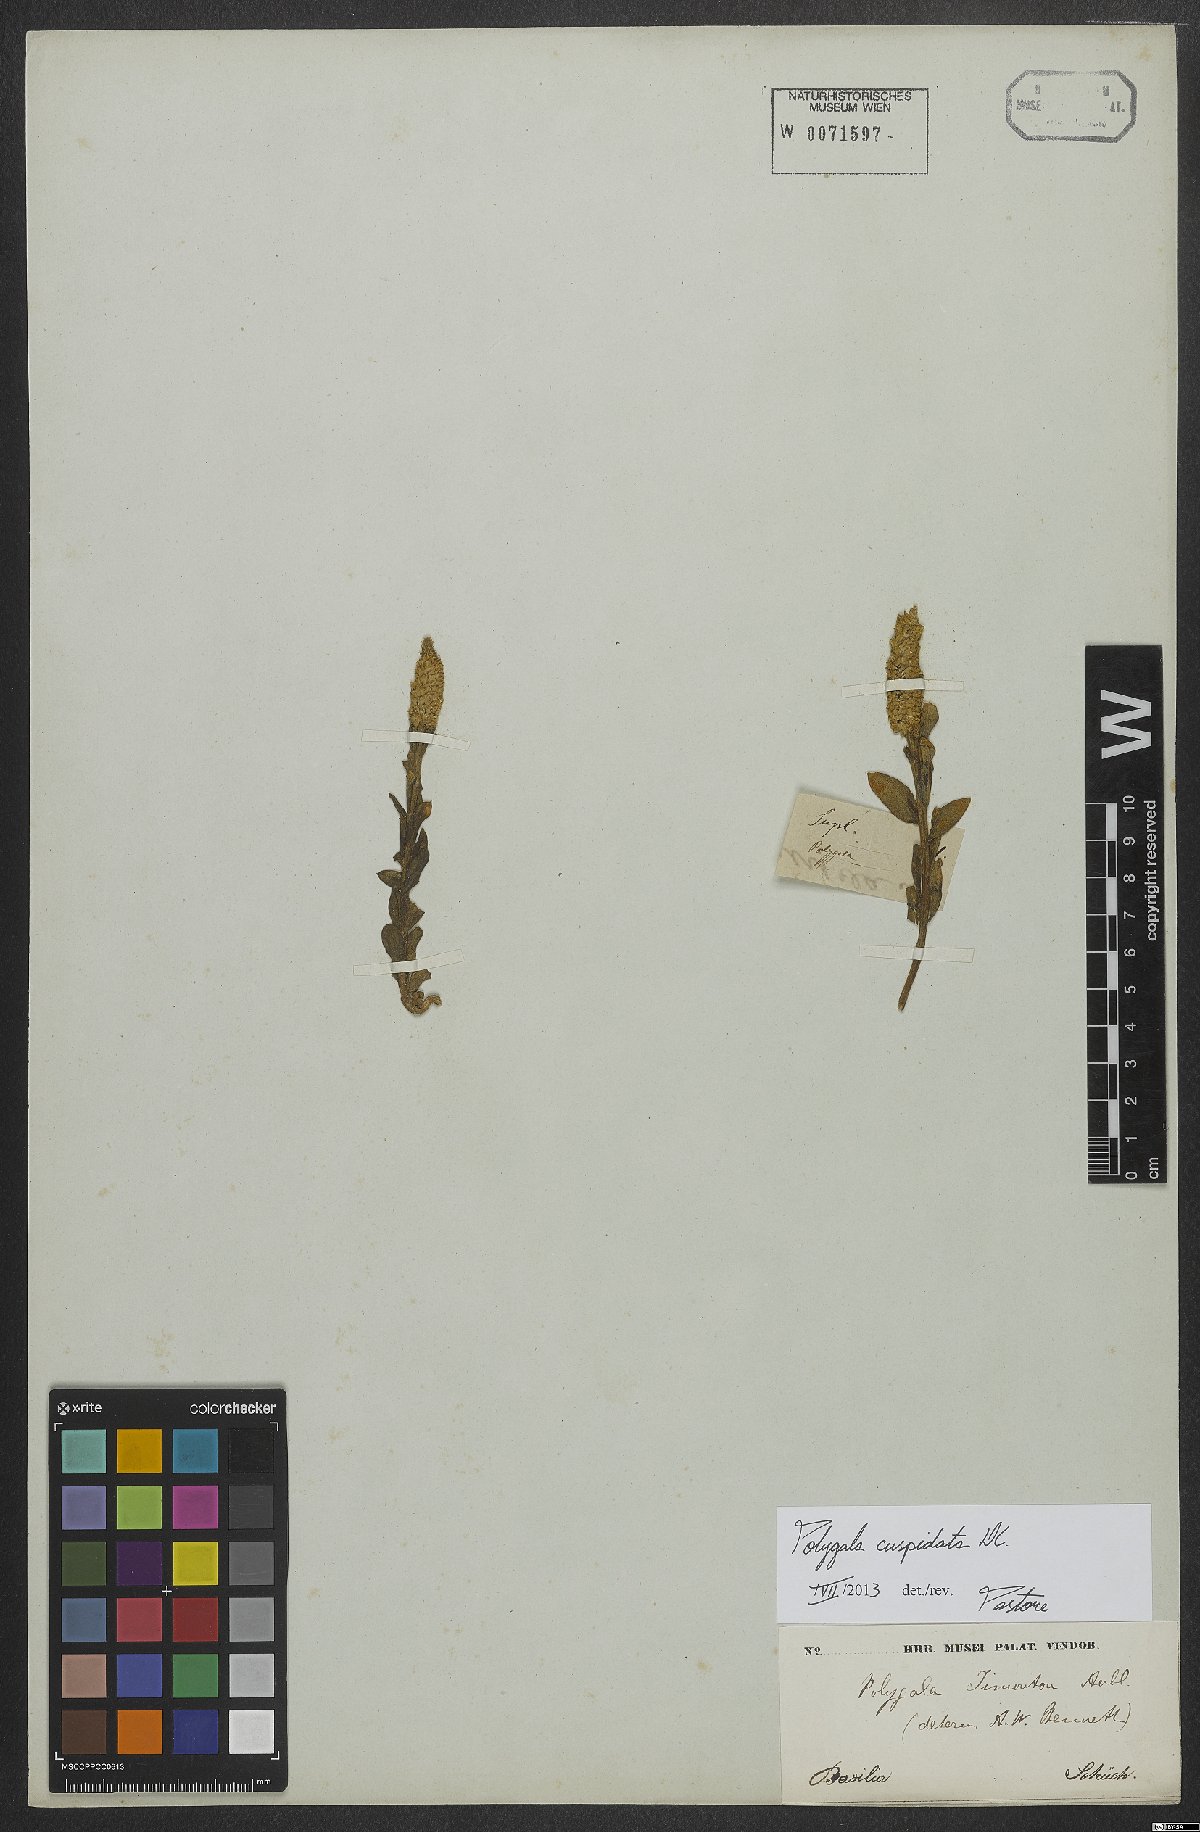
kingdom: Plantae
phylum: Tracheophyta
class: Magnoliopsida
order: Fabales
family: Polygalaceae
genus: Polygala
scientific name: Polygala cuspidata
